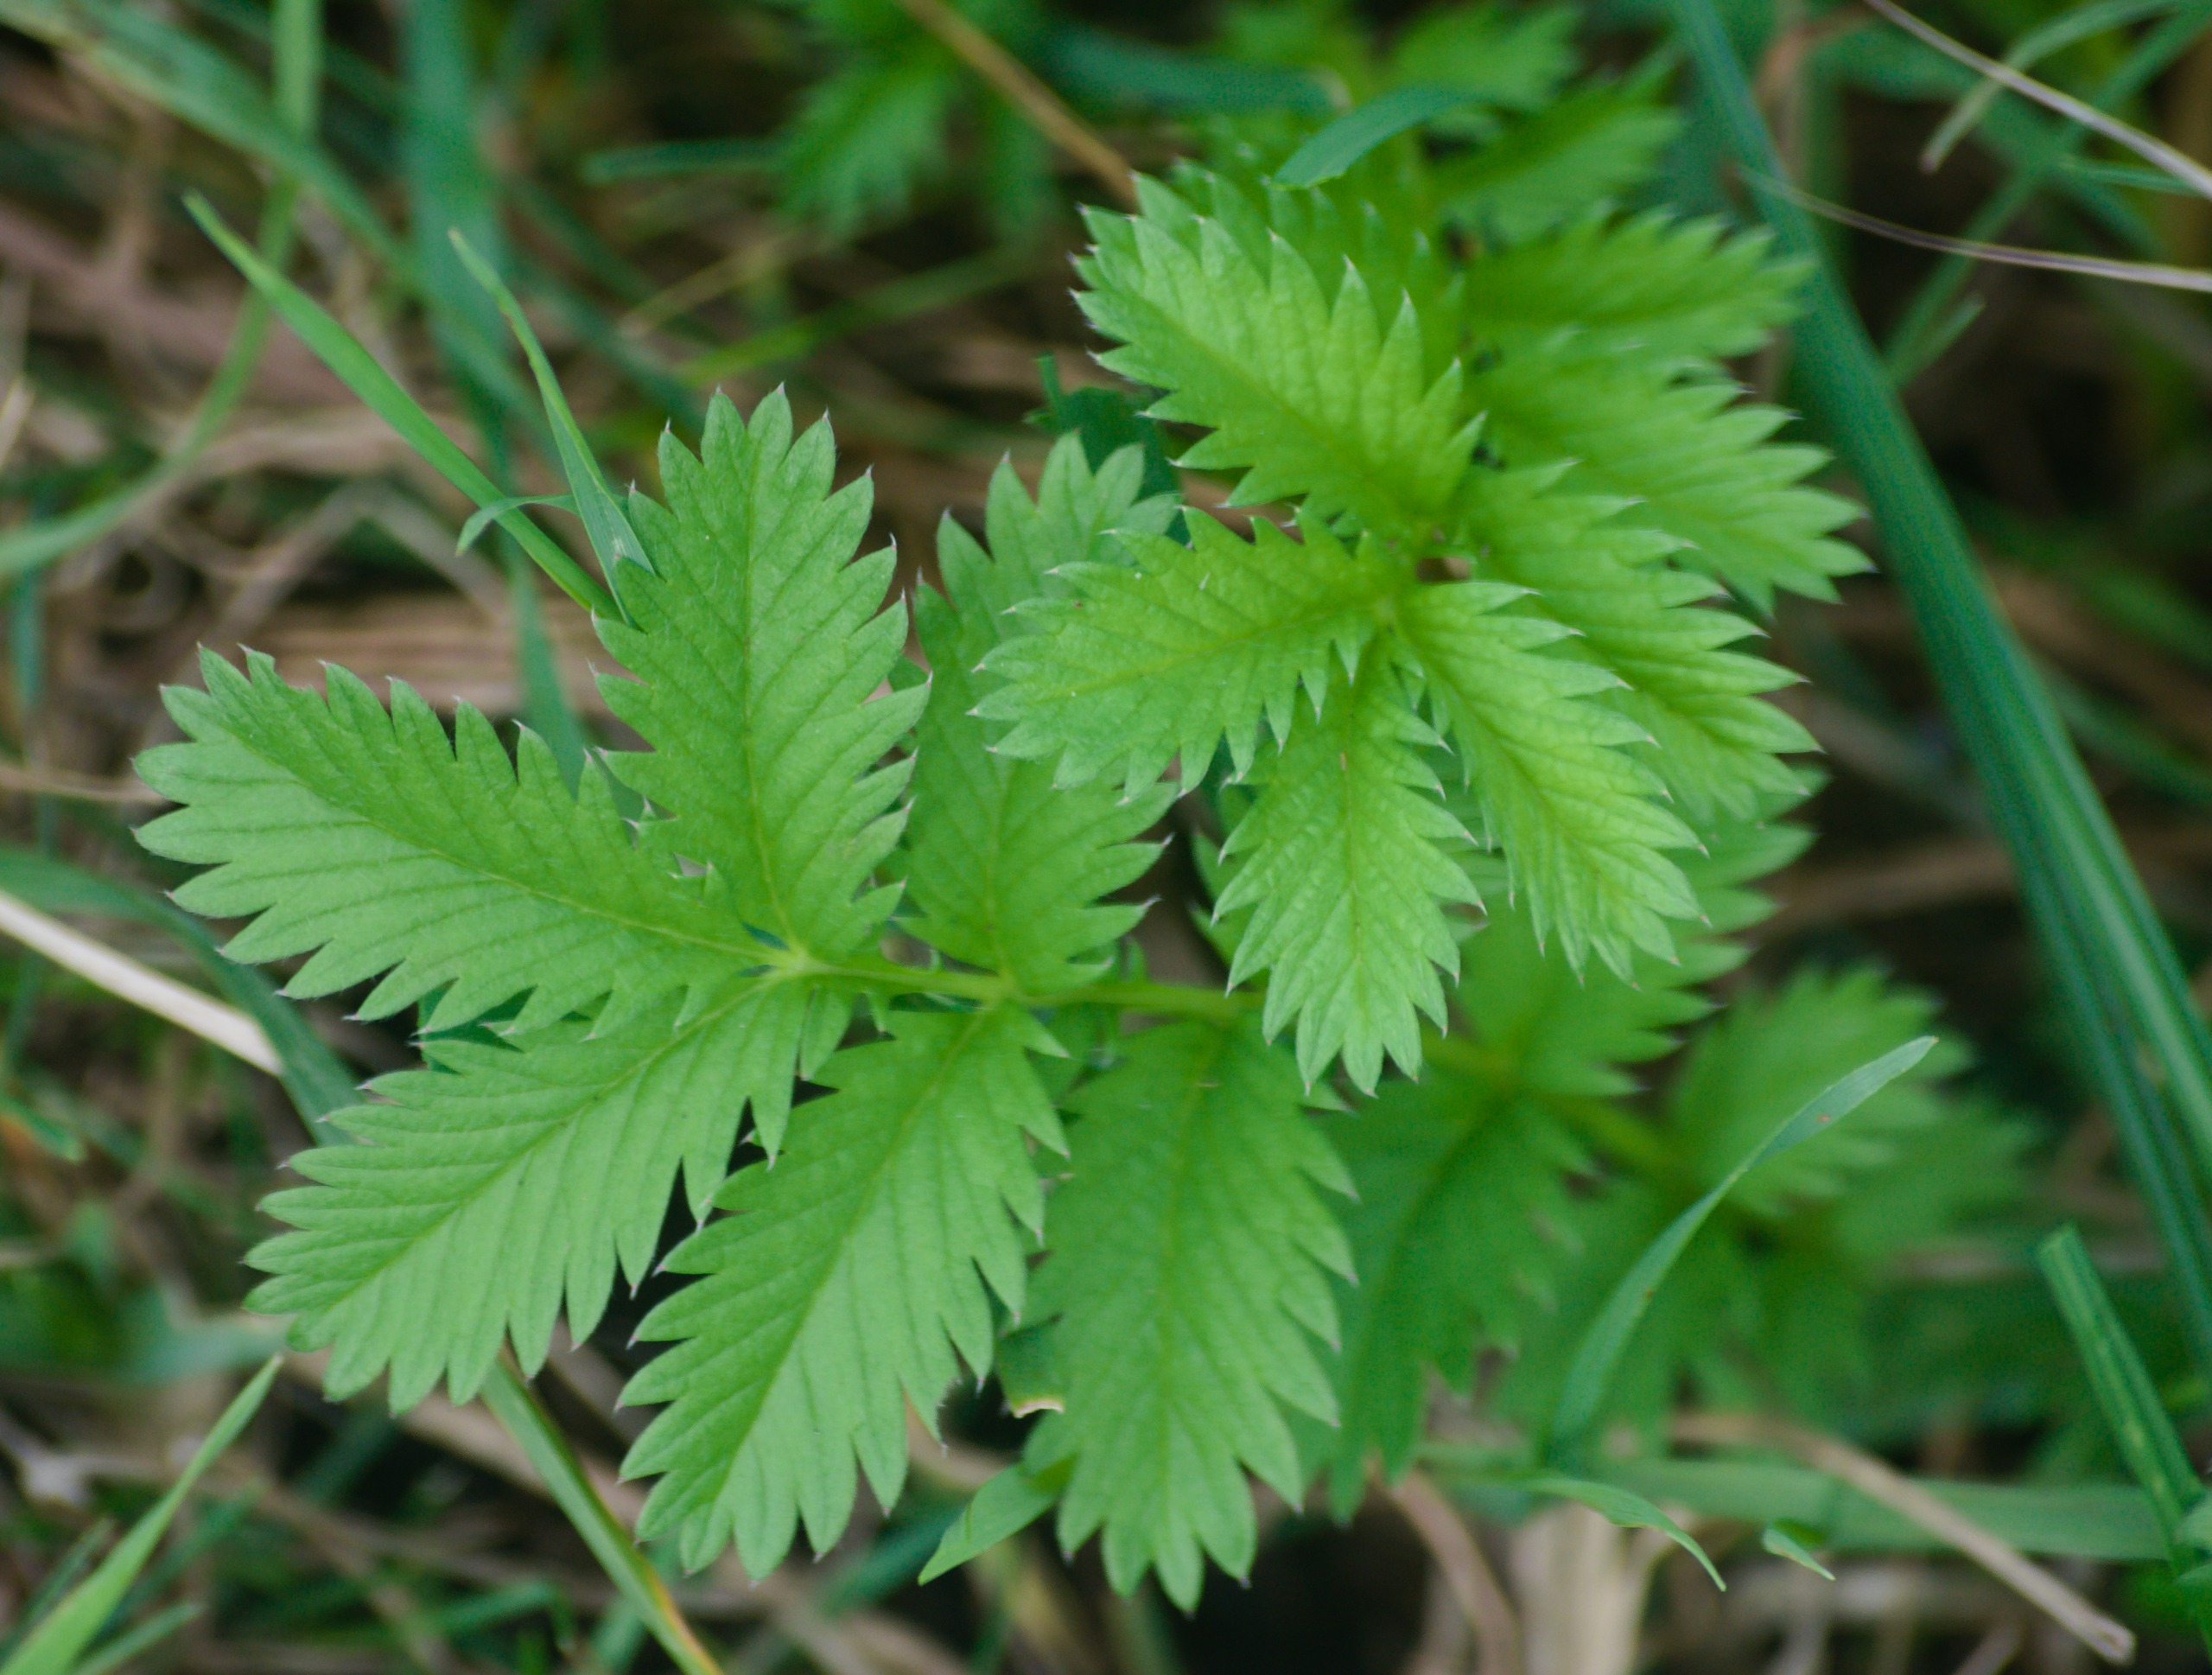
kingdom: Plantae
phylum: Tracheophyta
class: Magnoliopsida
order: Rosales
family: Rosaceae
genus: Argentina
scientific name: Argentina anserina
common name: Gåsepotentil
